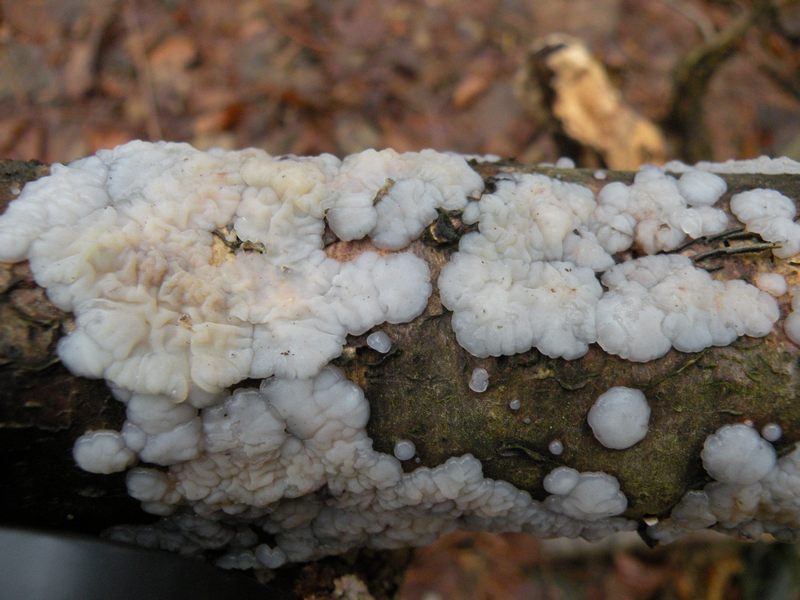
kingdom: Fungi
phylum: Basidiomycota
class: Agaricomycetes
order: Auriculariales
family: Auriculariaceae
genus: Exidia
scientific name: Exidia thuretiana
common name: hvidlig bævretop
